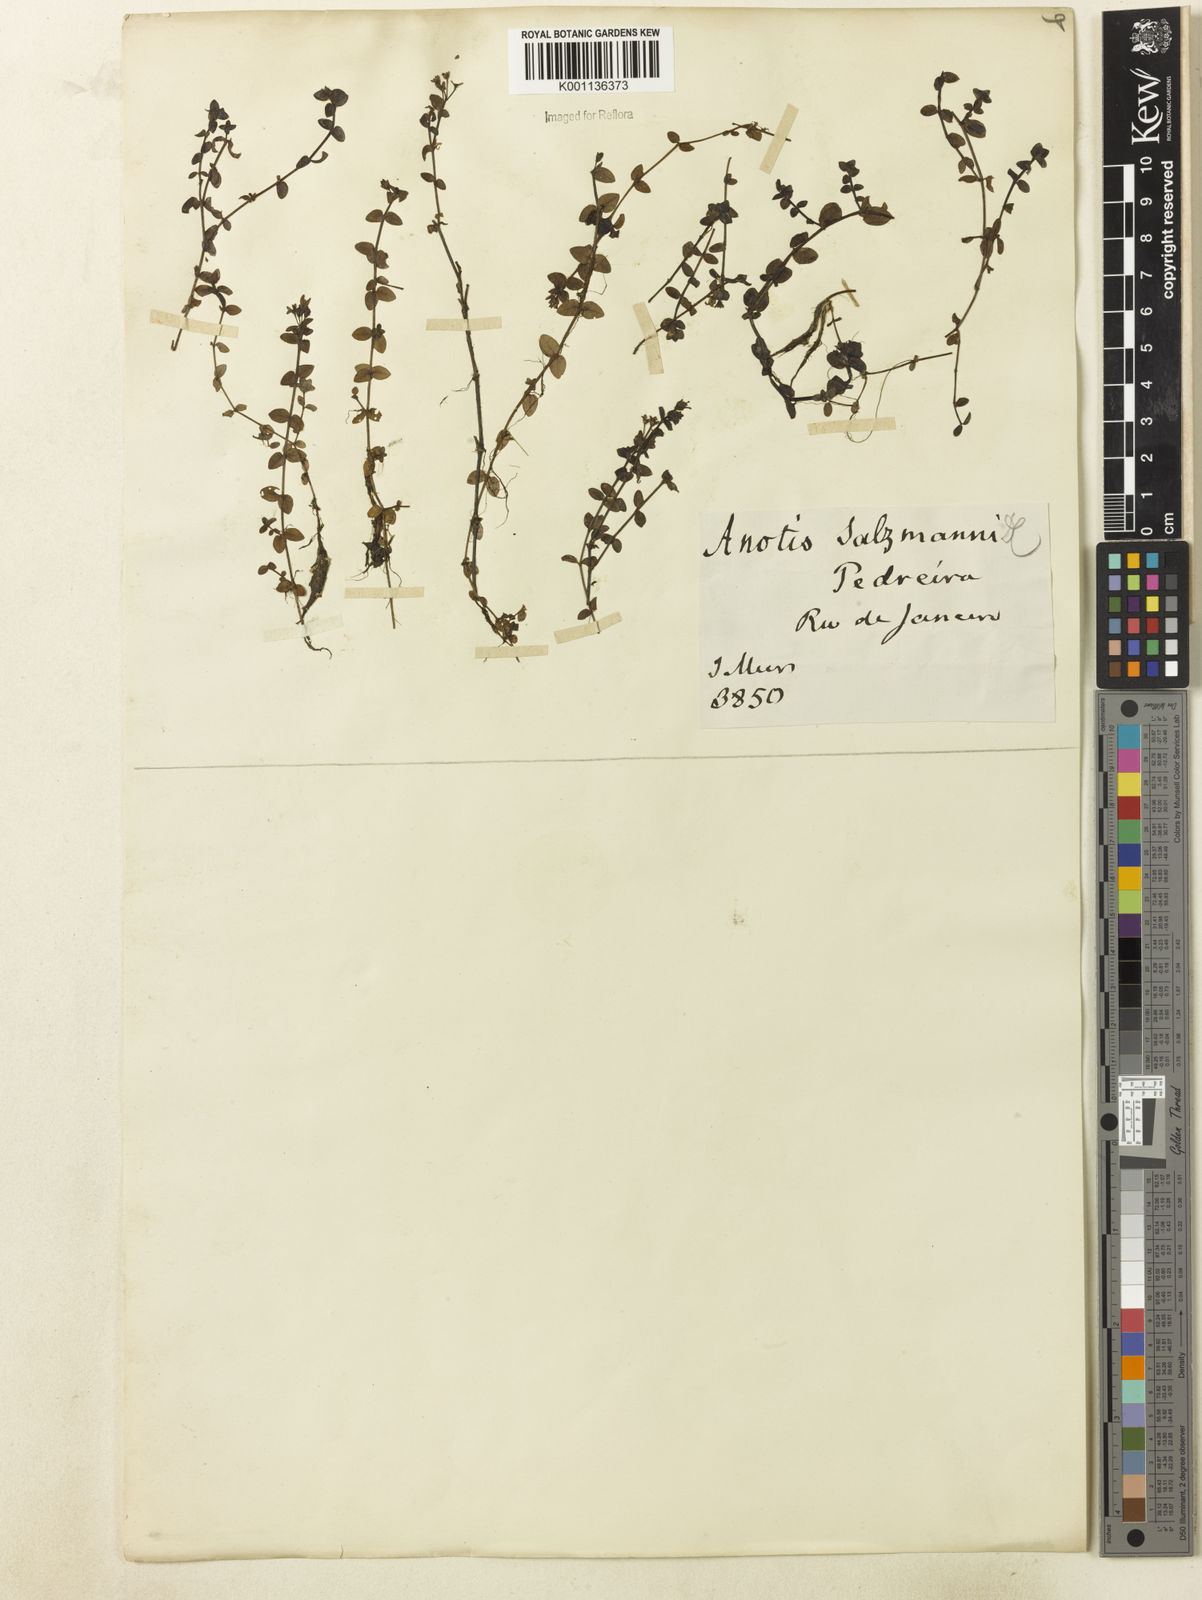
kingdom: Plantae
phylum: Tracheophyta
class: Magnoliopsida
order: Gentianales
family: Rubiaceae
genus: Oldenlandia
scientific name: Oldenlandia salzmannii
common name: Salzmann's mille graines
